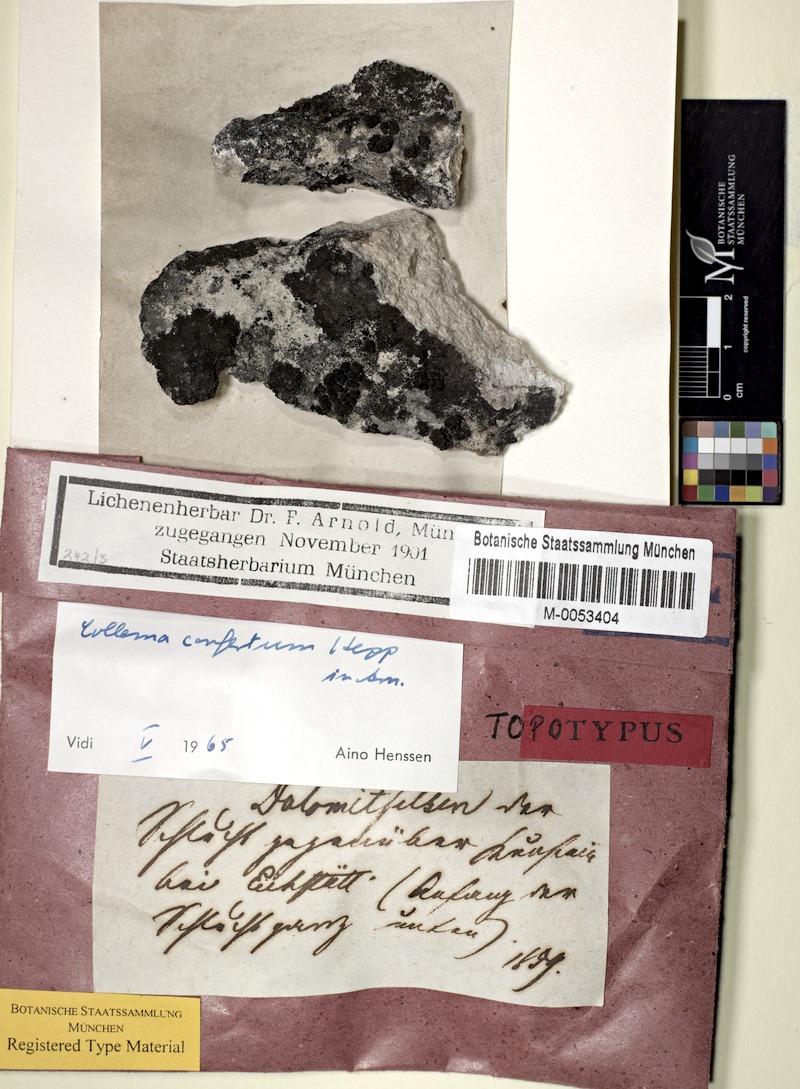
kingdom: Fungi
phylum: Ascomycota
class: Lecanoromycetes
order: Peltigerales
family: Collemataceae
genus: Enchylium
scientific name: Enchylium confertum
